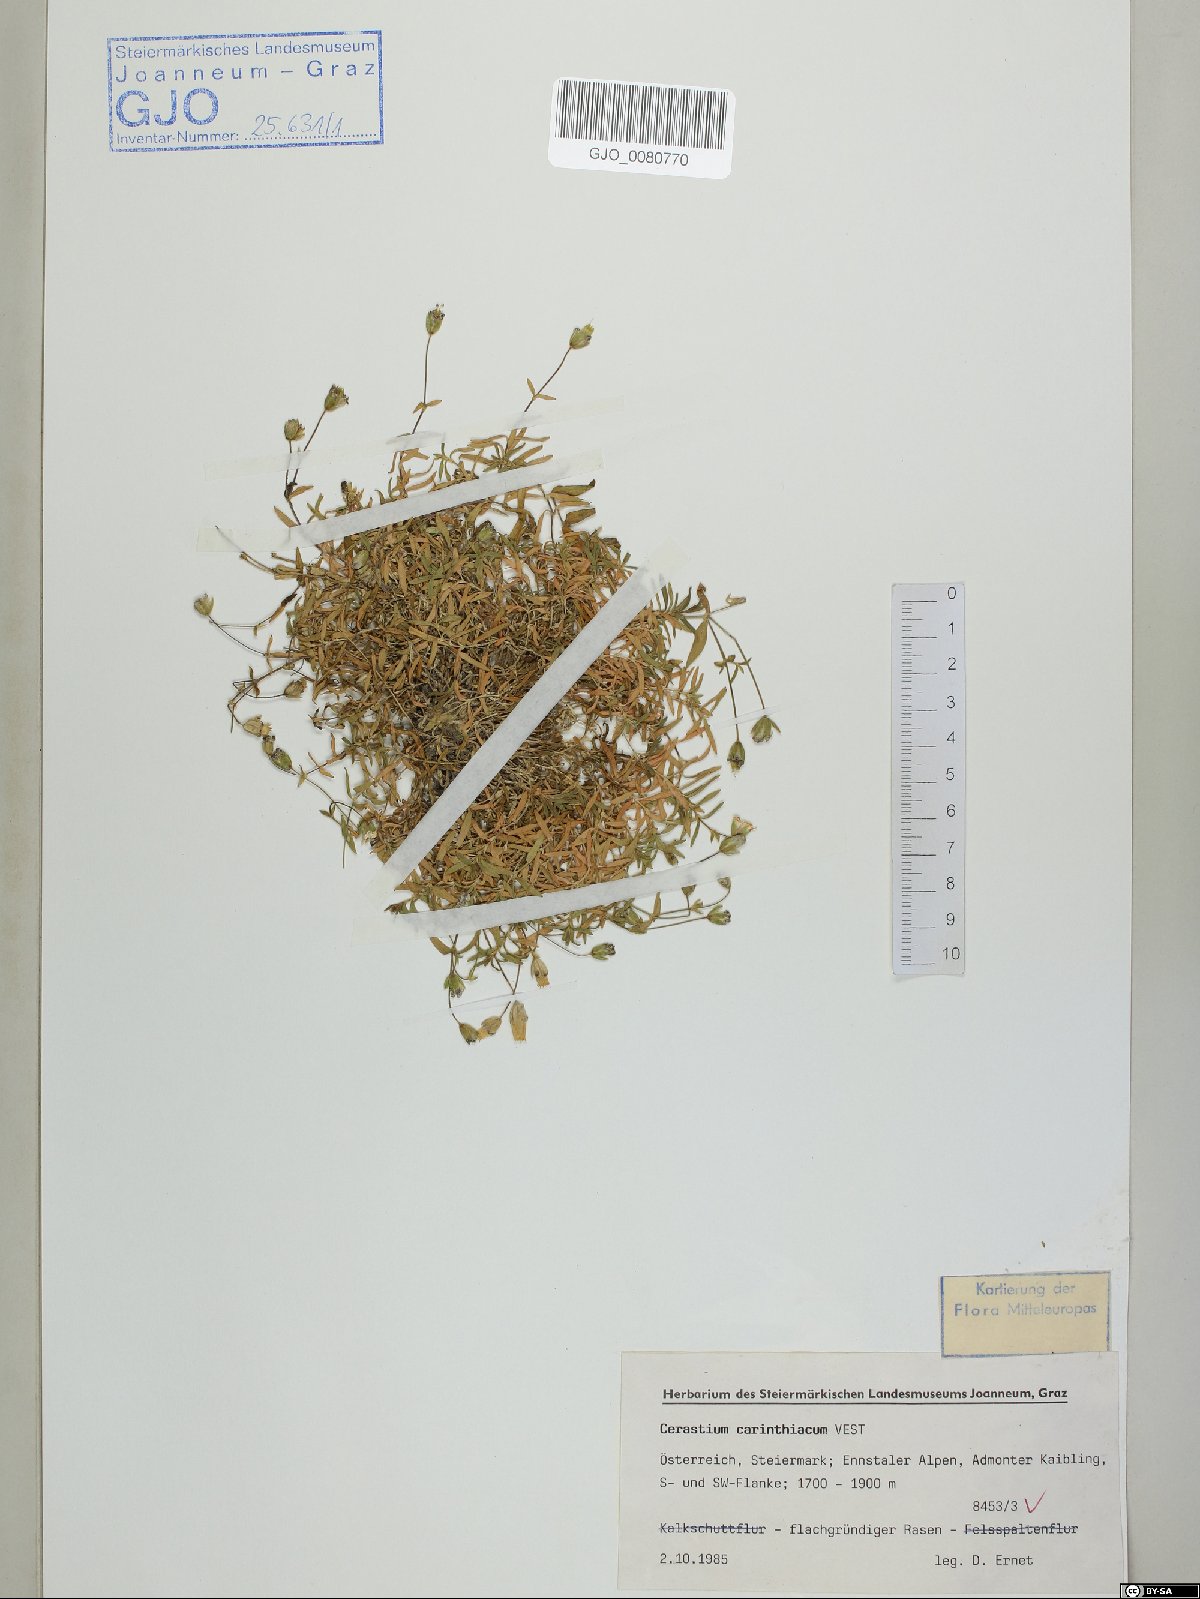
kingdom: Plantae
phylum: Tracheophyta
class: Magnoliopsida
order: Caryophyllales
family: Caryophyllaceae
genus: Cerastium
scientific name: Cerastium carinthiacum
